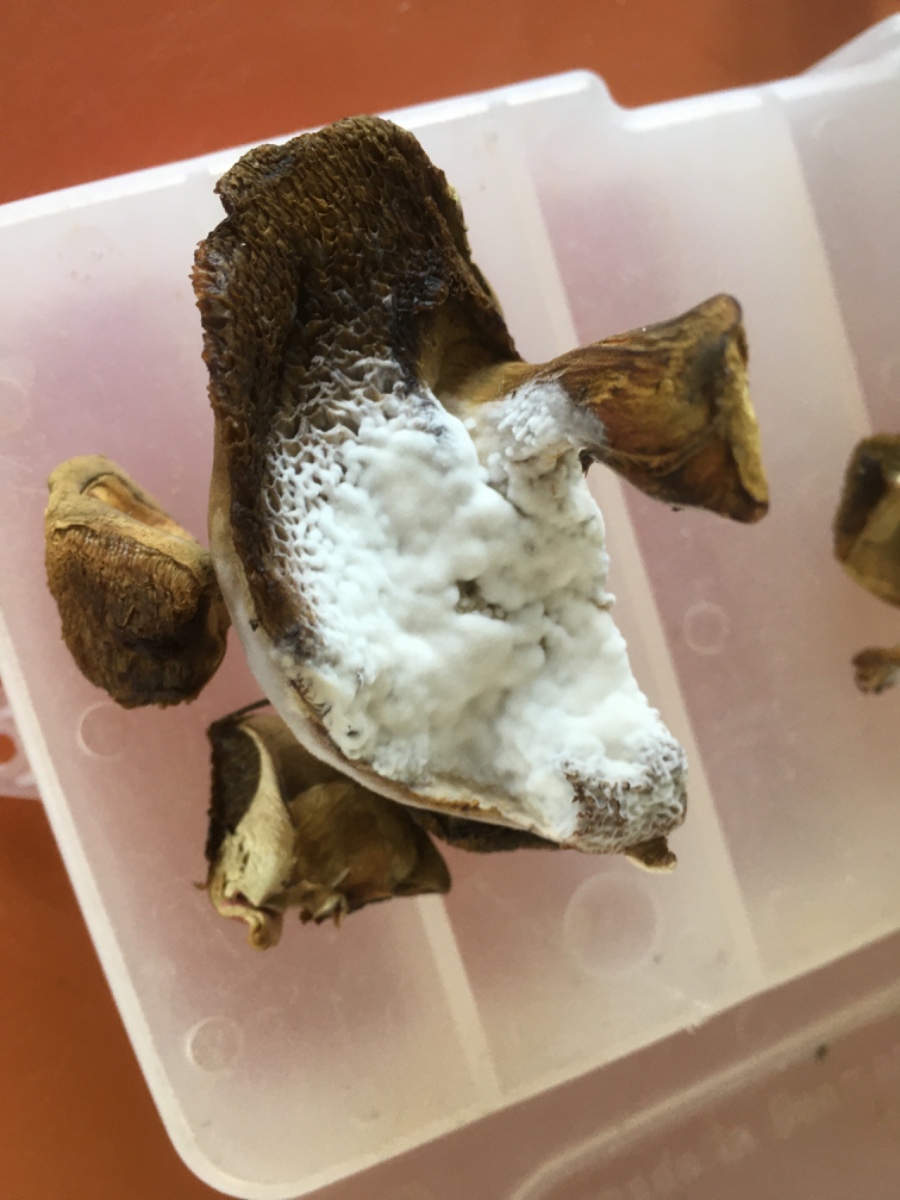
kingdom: Fungi
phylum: Ascomycota
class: Sordariomycetes
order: Hypocreales
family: Hypocreaceae
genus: Hypomyces
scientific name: Hypomyces microspermus
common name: dværgrørhat-snylteskorpe
